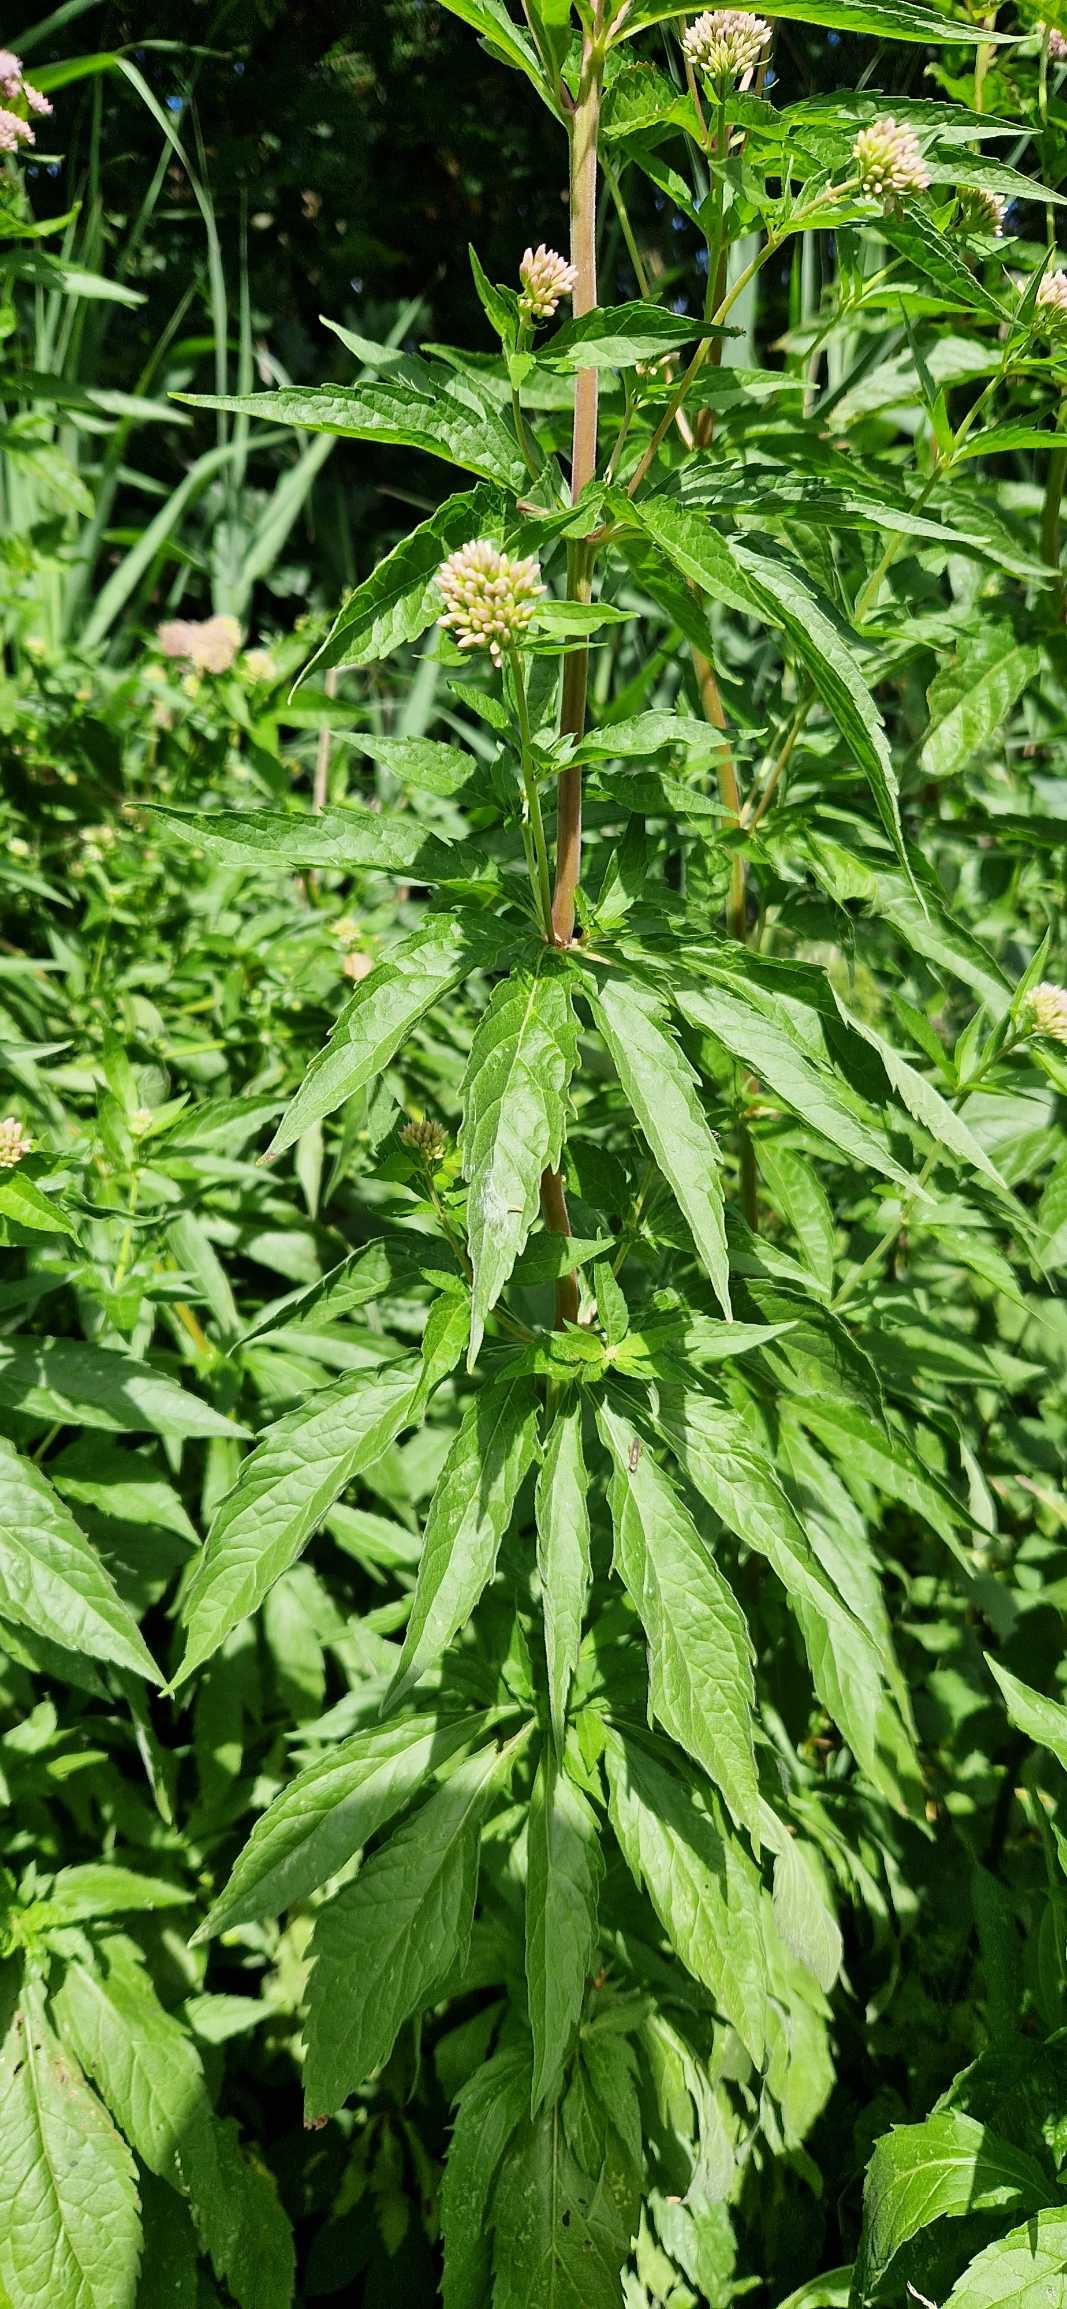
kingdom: Plantae
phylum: Tracheophyta
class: Magnoliopsida
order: Asterales
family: Asteraceae
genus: Eupatorium
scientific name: Eupatorium cannabinum
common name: Hjortetrøst
